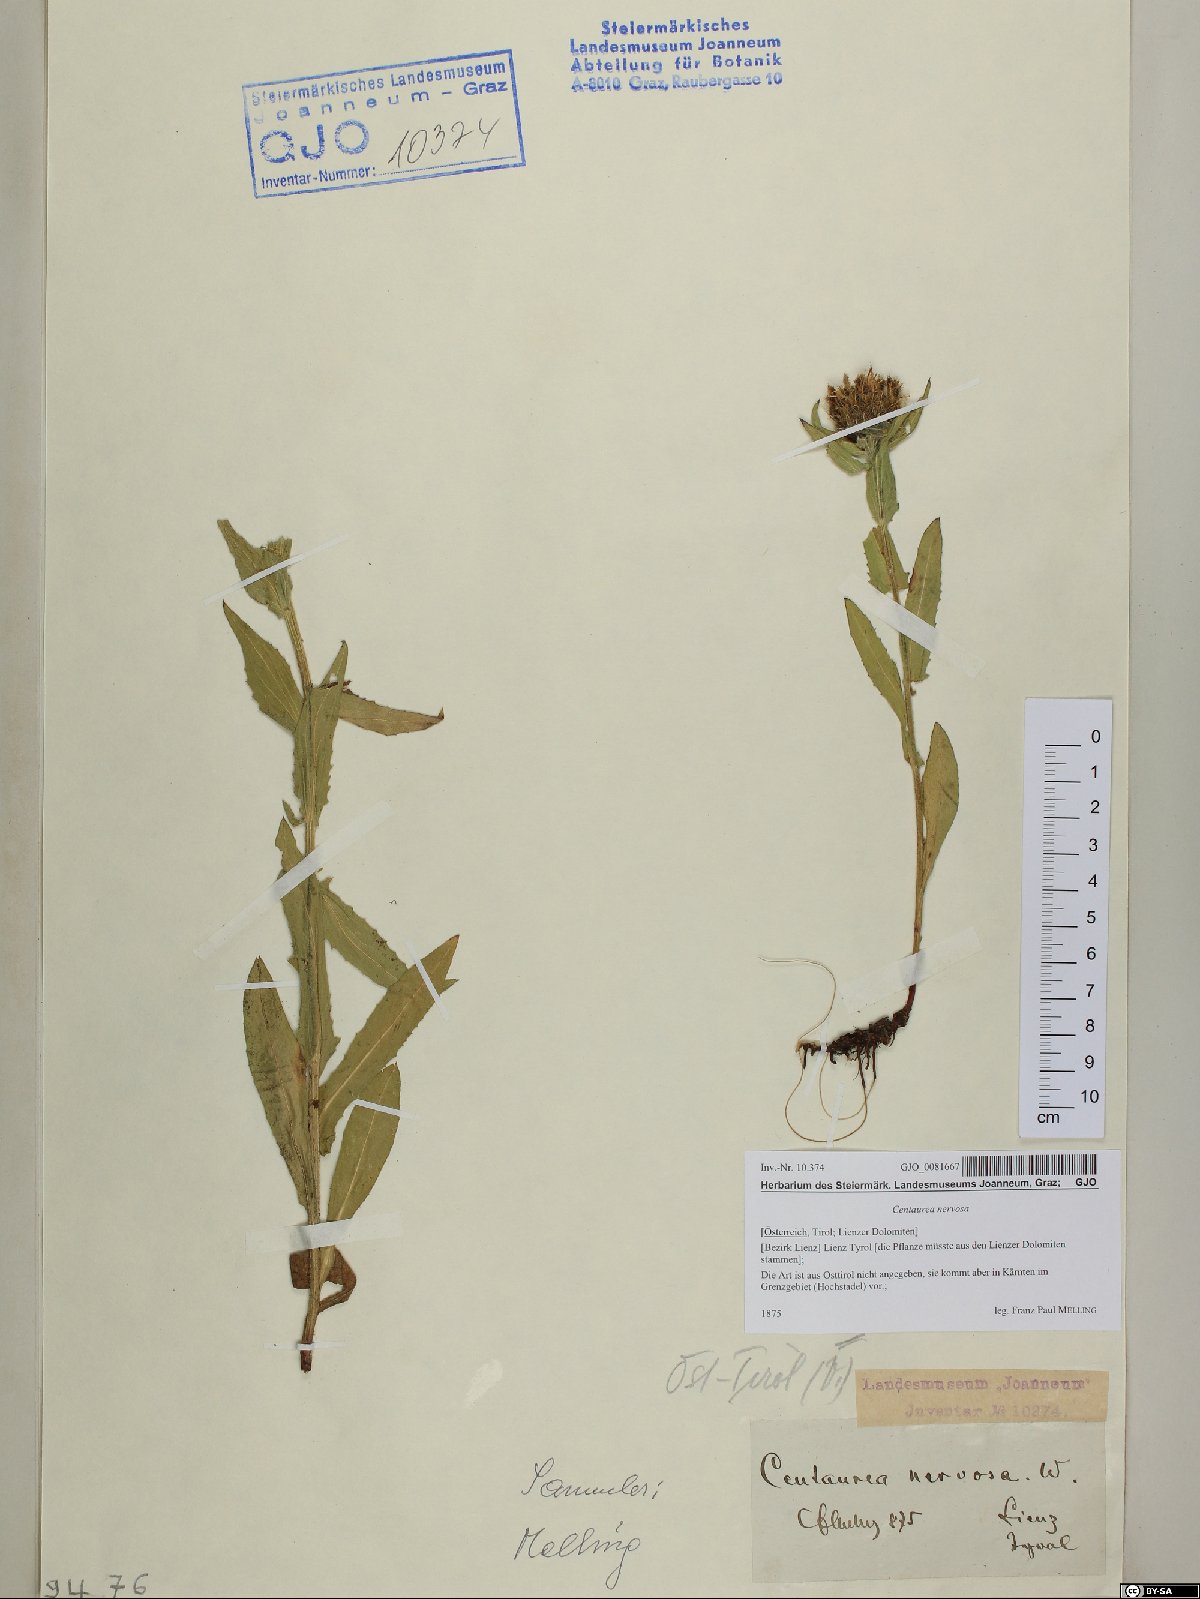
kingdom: Plantae
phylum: Tracheophyta
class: Magnoliopsida
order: Asterales
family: Asteraceae
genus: Centaurea
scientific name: Centaurea nervosa
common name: Singleflower knapweed
